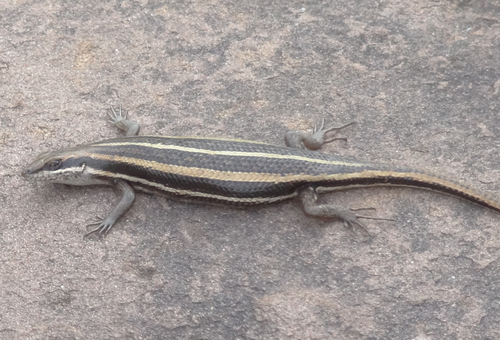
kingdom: Animalia
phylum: Chordata
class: Squamata
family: Scincidae
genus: Trachylepis
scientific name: Trachylepis bocagii
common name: Bocage's skink
